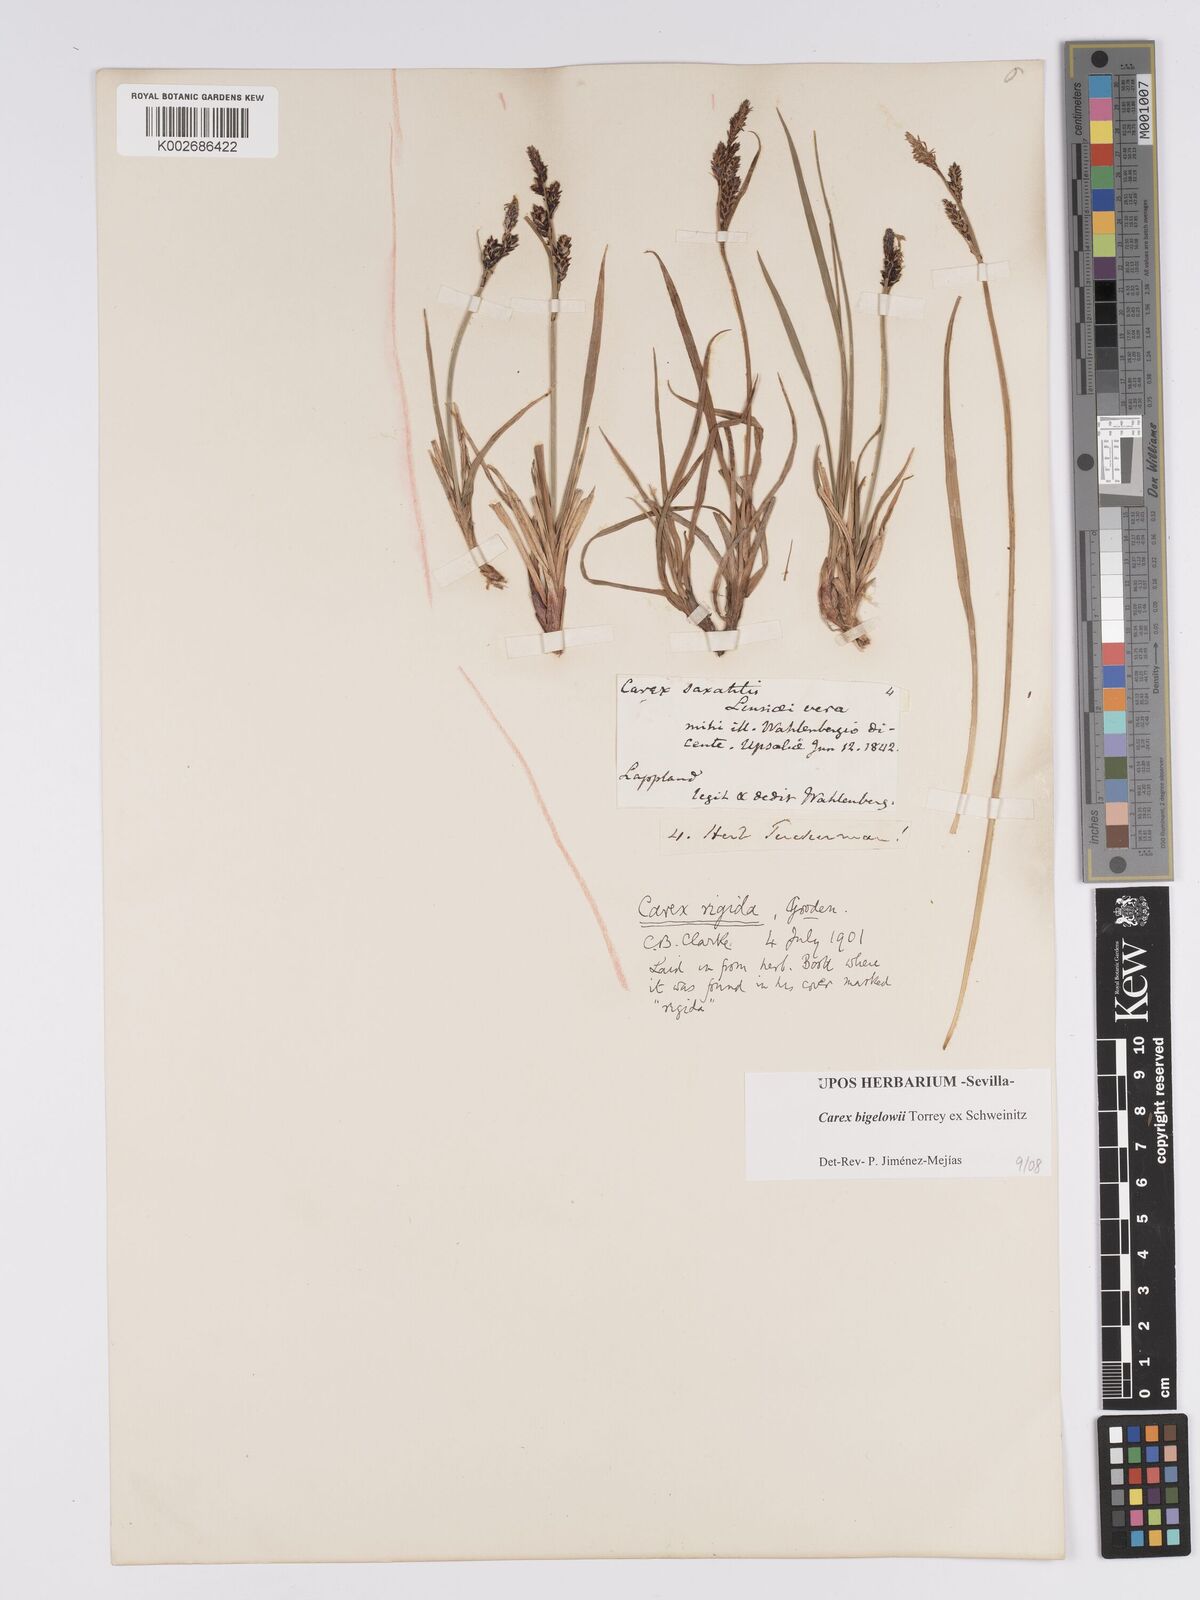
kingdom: Plantae
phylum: Tracheophyta
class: Liliopsida
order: Poales
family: Cyperaceae
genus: Carex
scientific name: Carex bigelowii
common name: Stiff sedge
